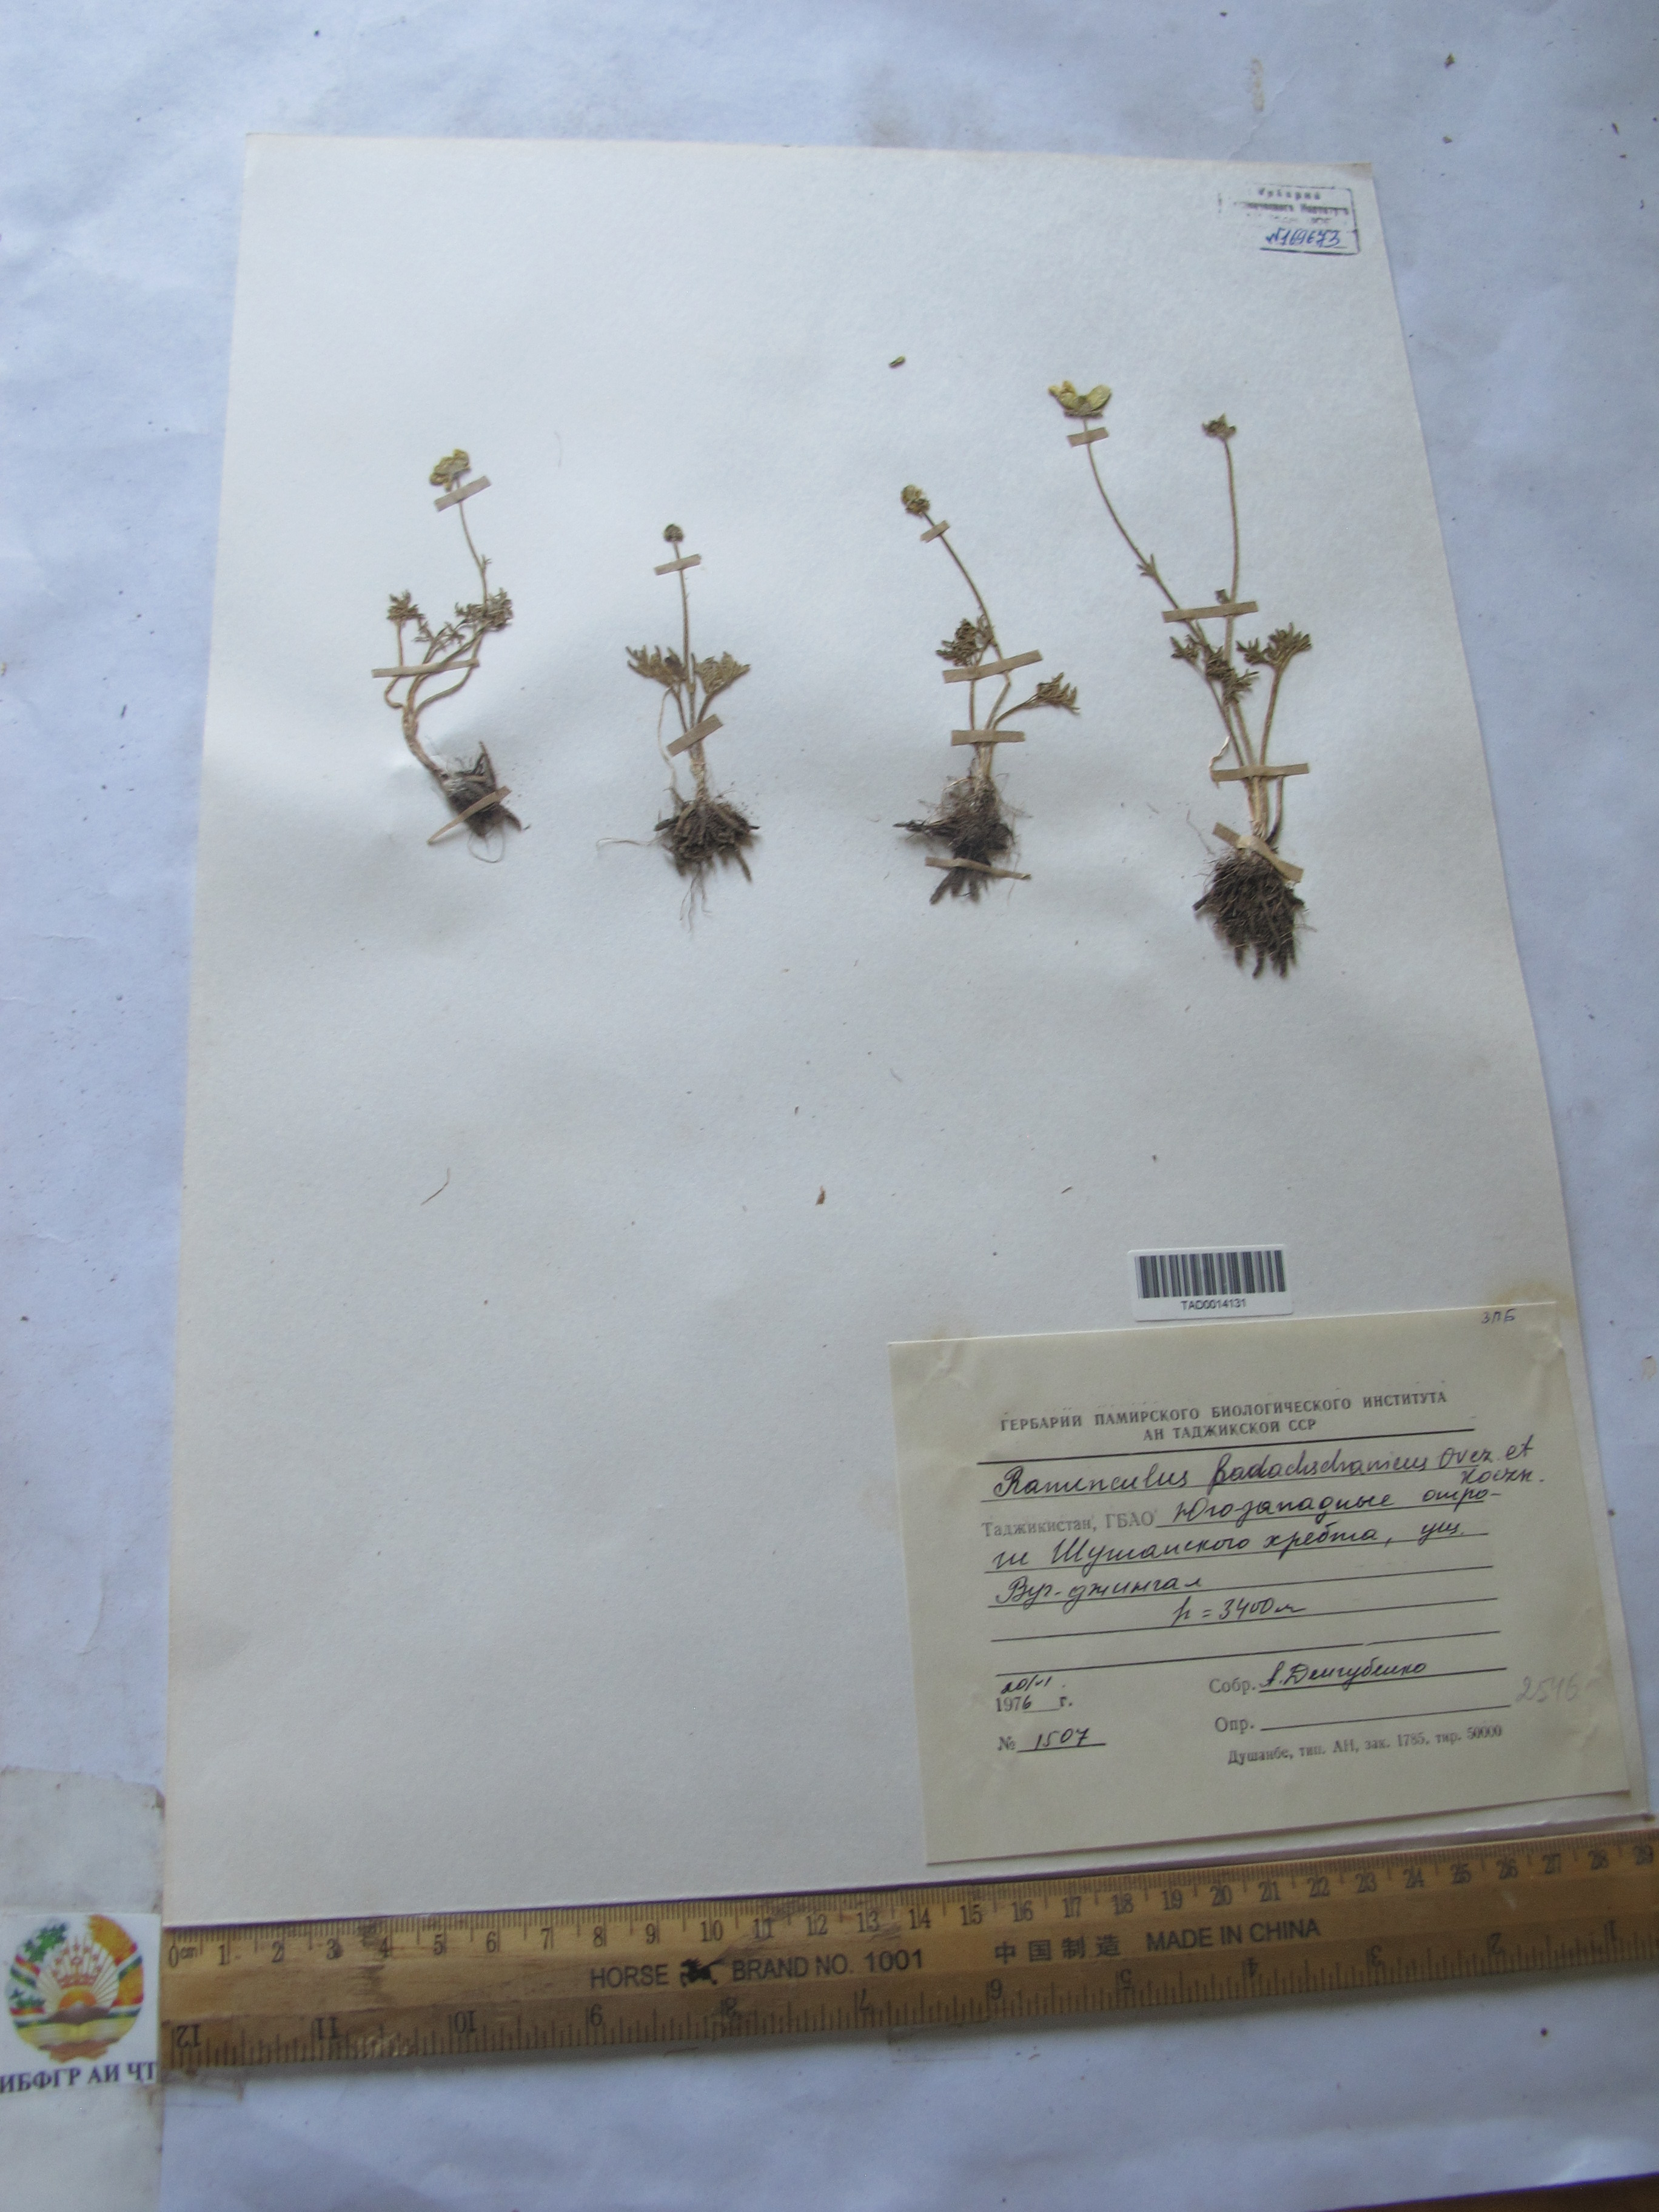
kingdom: Plantae
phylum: Tracheophyta
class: Magnoliopsida
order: Ranunculales
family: Ranunculaceae
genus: Ranunculus
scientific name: Ranunculus badachschanicus
